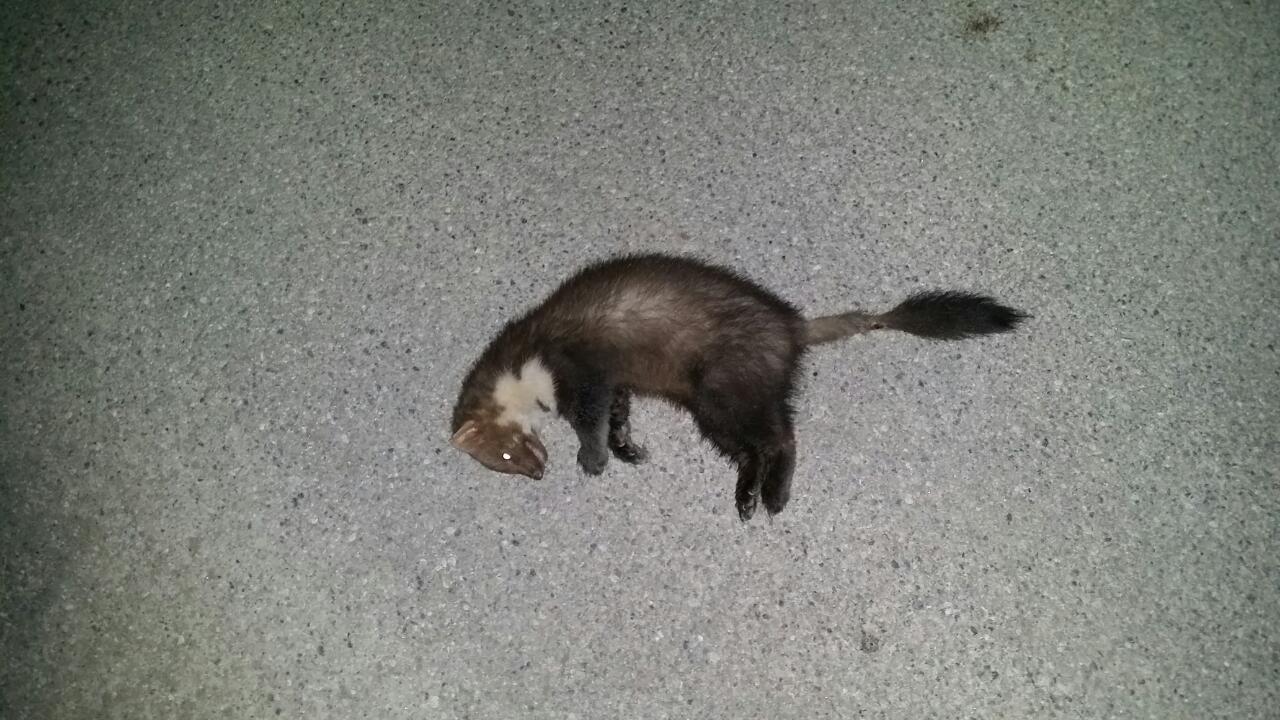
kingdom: Animalia
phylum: Chordata
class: Mammalia
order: Carnivora
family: Mustelidae
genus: Martes
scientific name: Martes foina
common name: Beech marten
